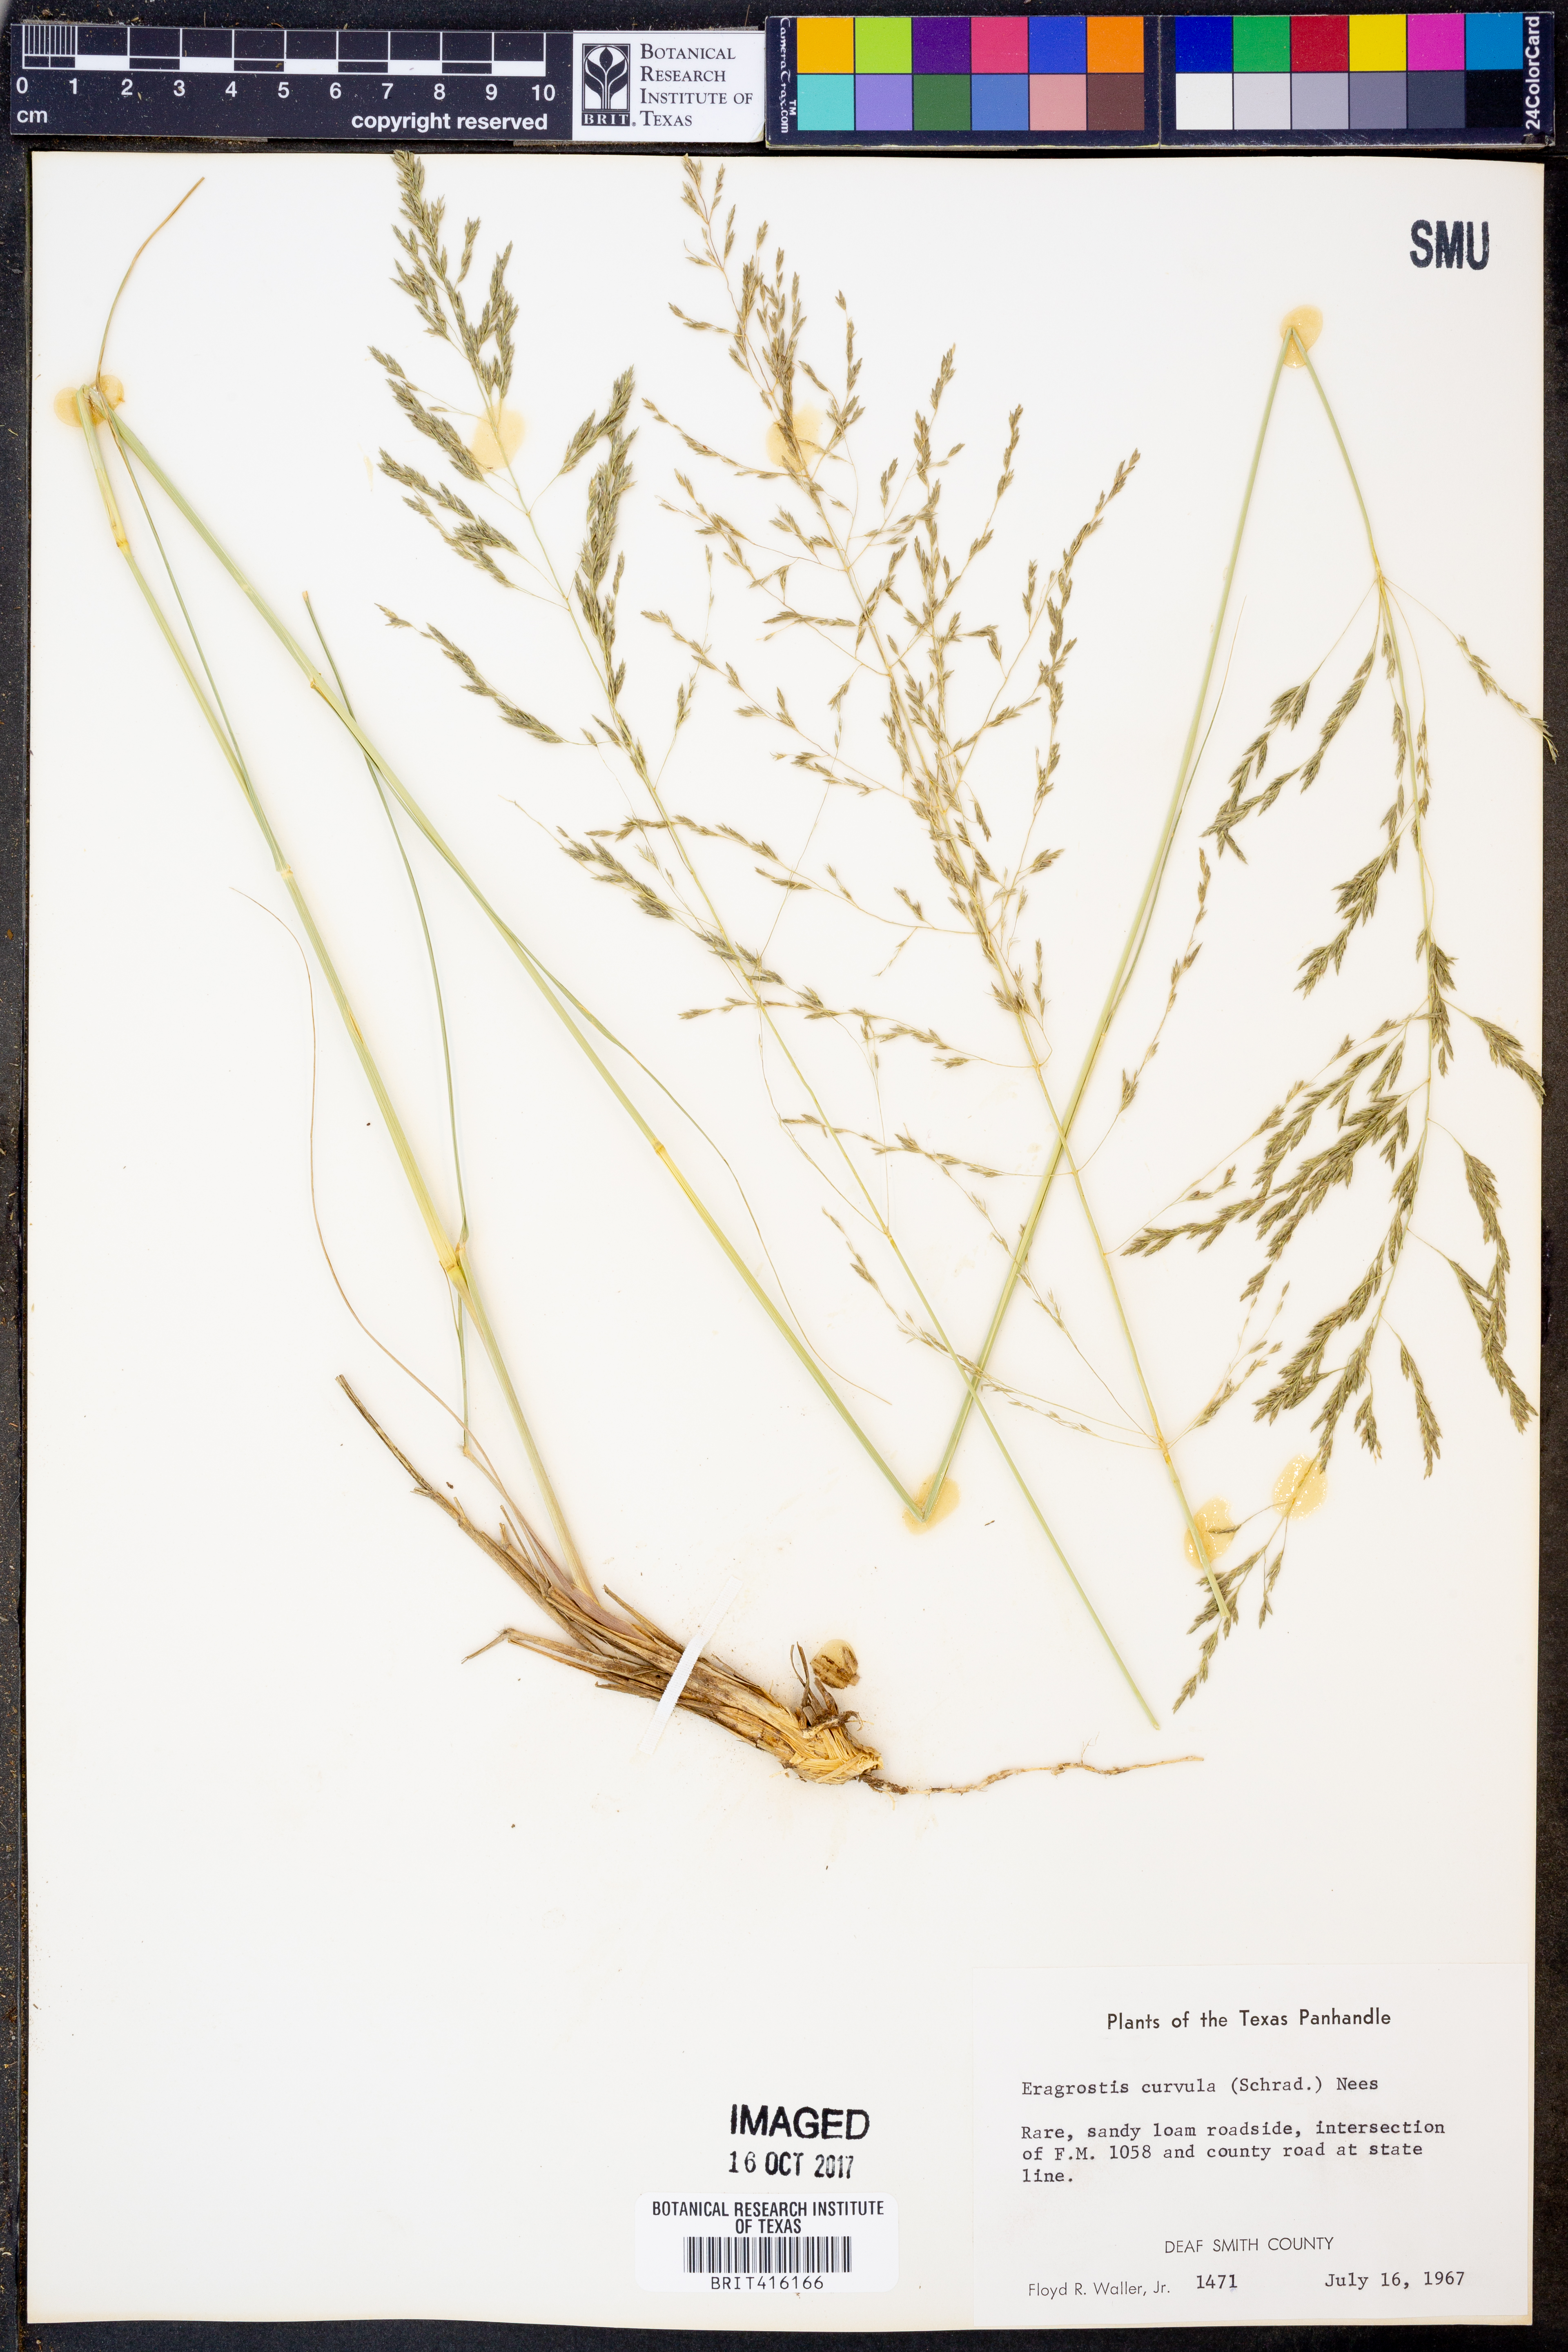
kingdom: Plantae
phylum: Tracheophyta
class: Liliopsida
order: Poales
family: Poaceae
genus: Eragrostis
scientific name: Eragrostis curvula
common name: African love-grass
